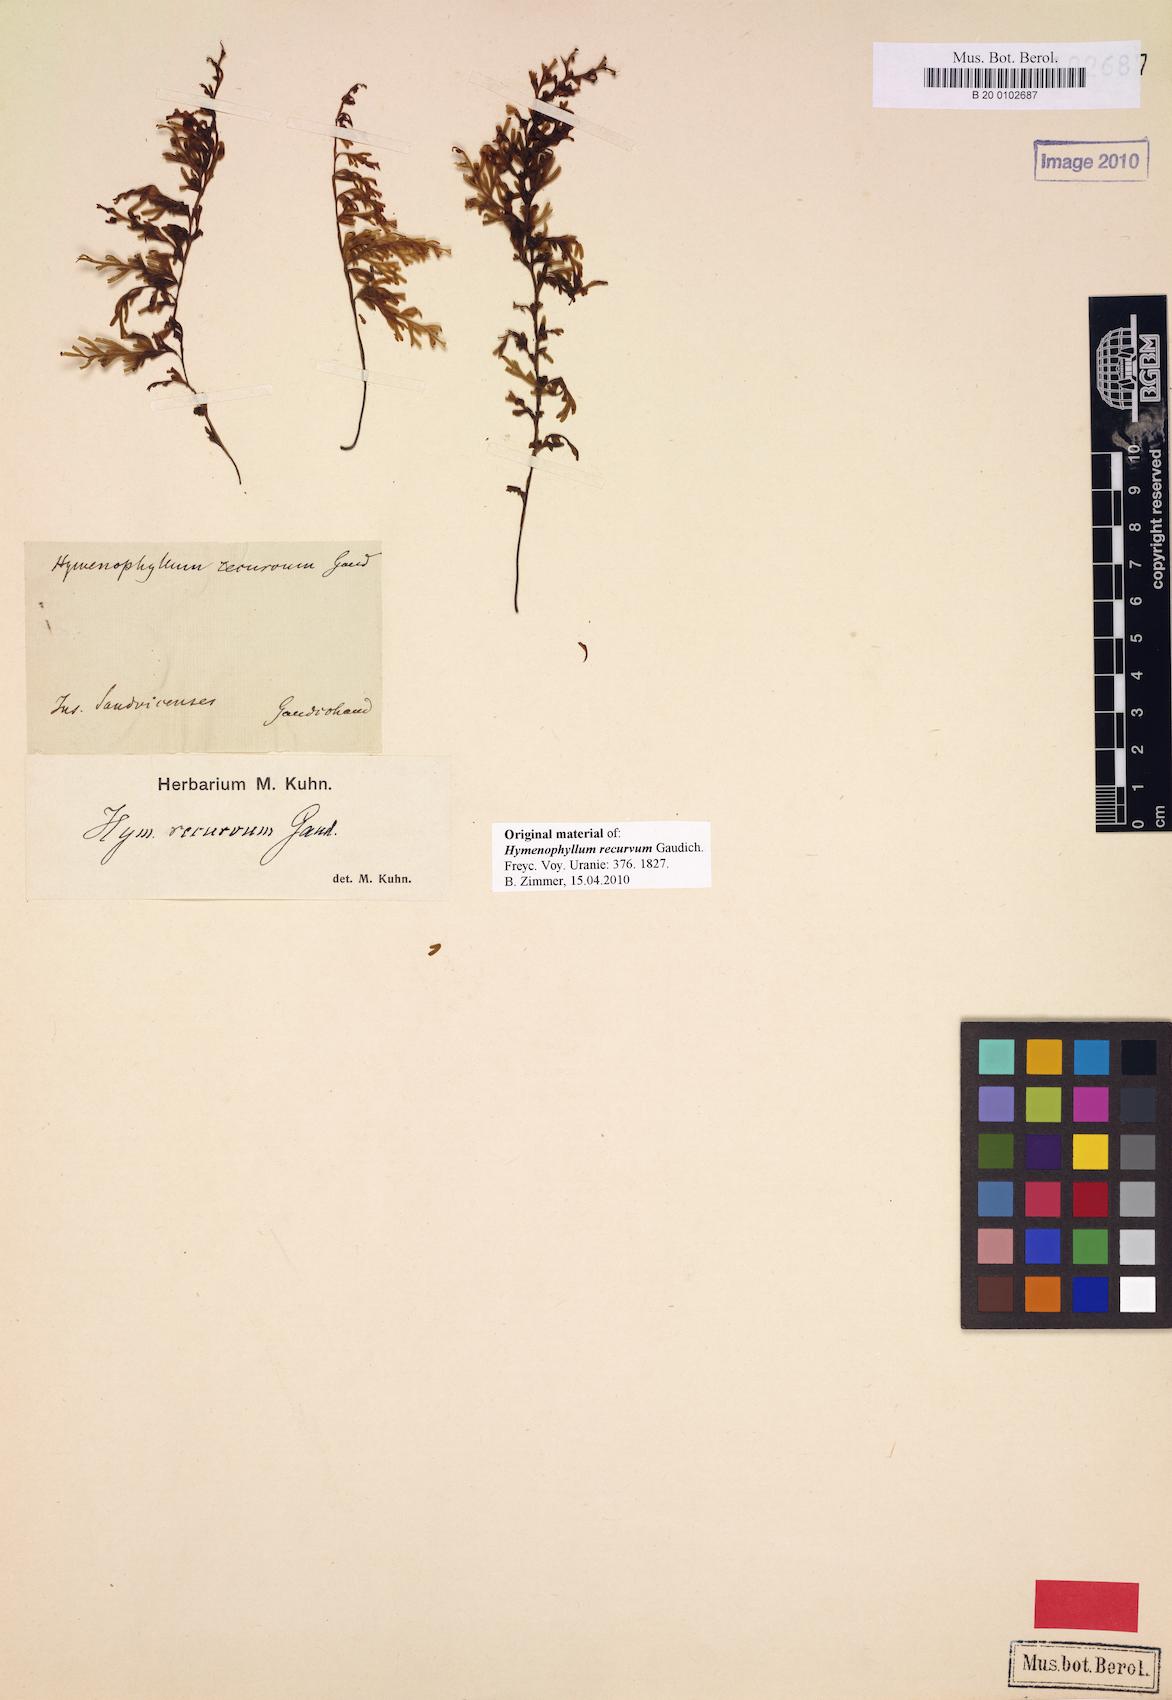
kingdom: Plantae
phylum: Tracheophyta
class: Polypodiopsida
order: Hymenophyllales
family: Hymenophyllaceae
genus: Hymenophyllum
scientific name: Hymenophyllum recurvum
